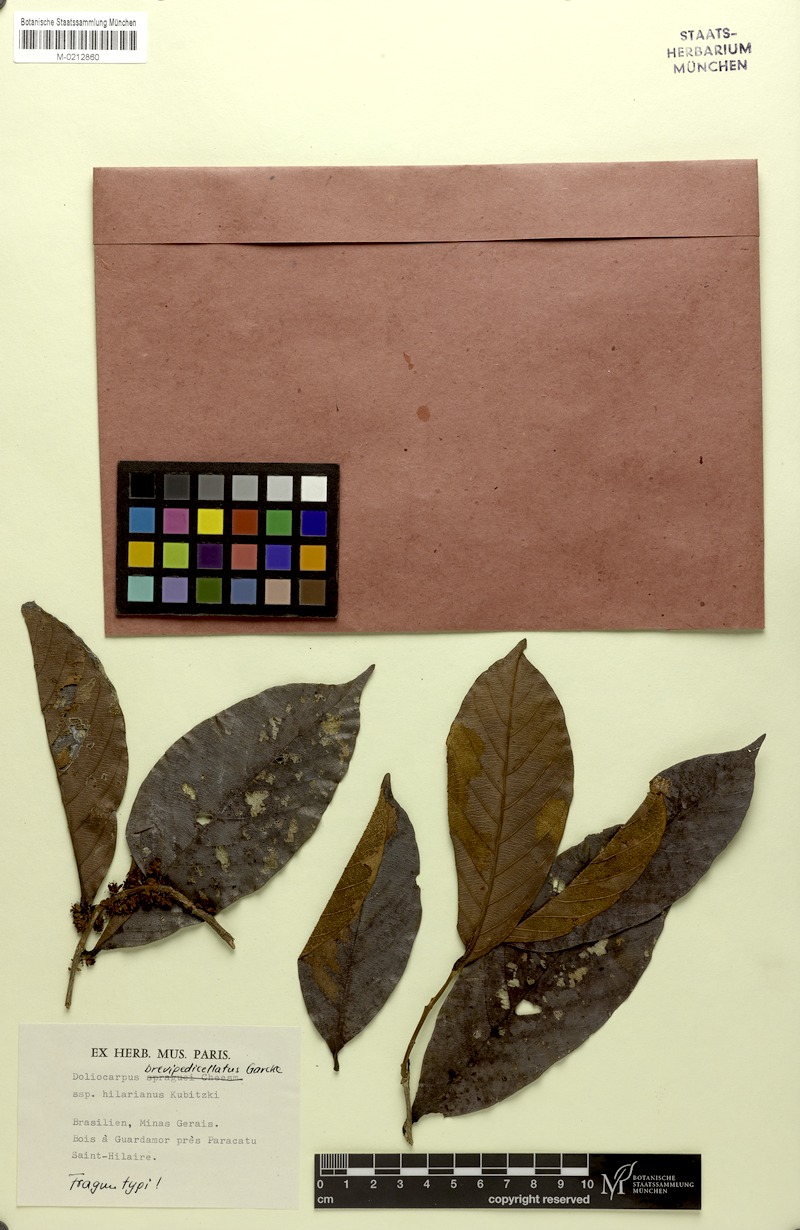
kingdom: Plantae
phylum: Tracheophyta
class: Magnoliopsida
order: Dilleniales
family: Dilleniaceae
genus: Doliocarpus
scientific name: Doliocarpus hilarianus
